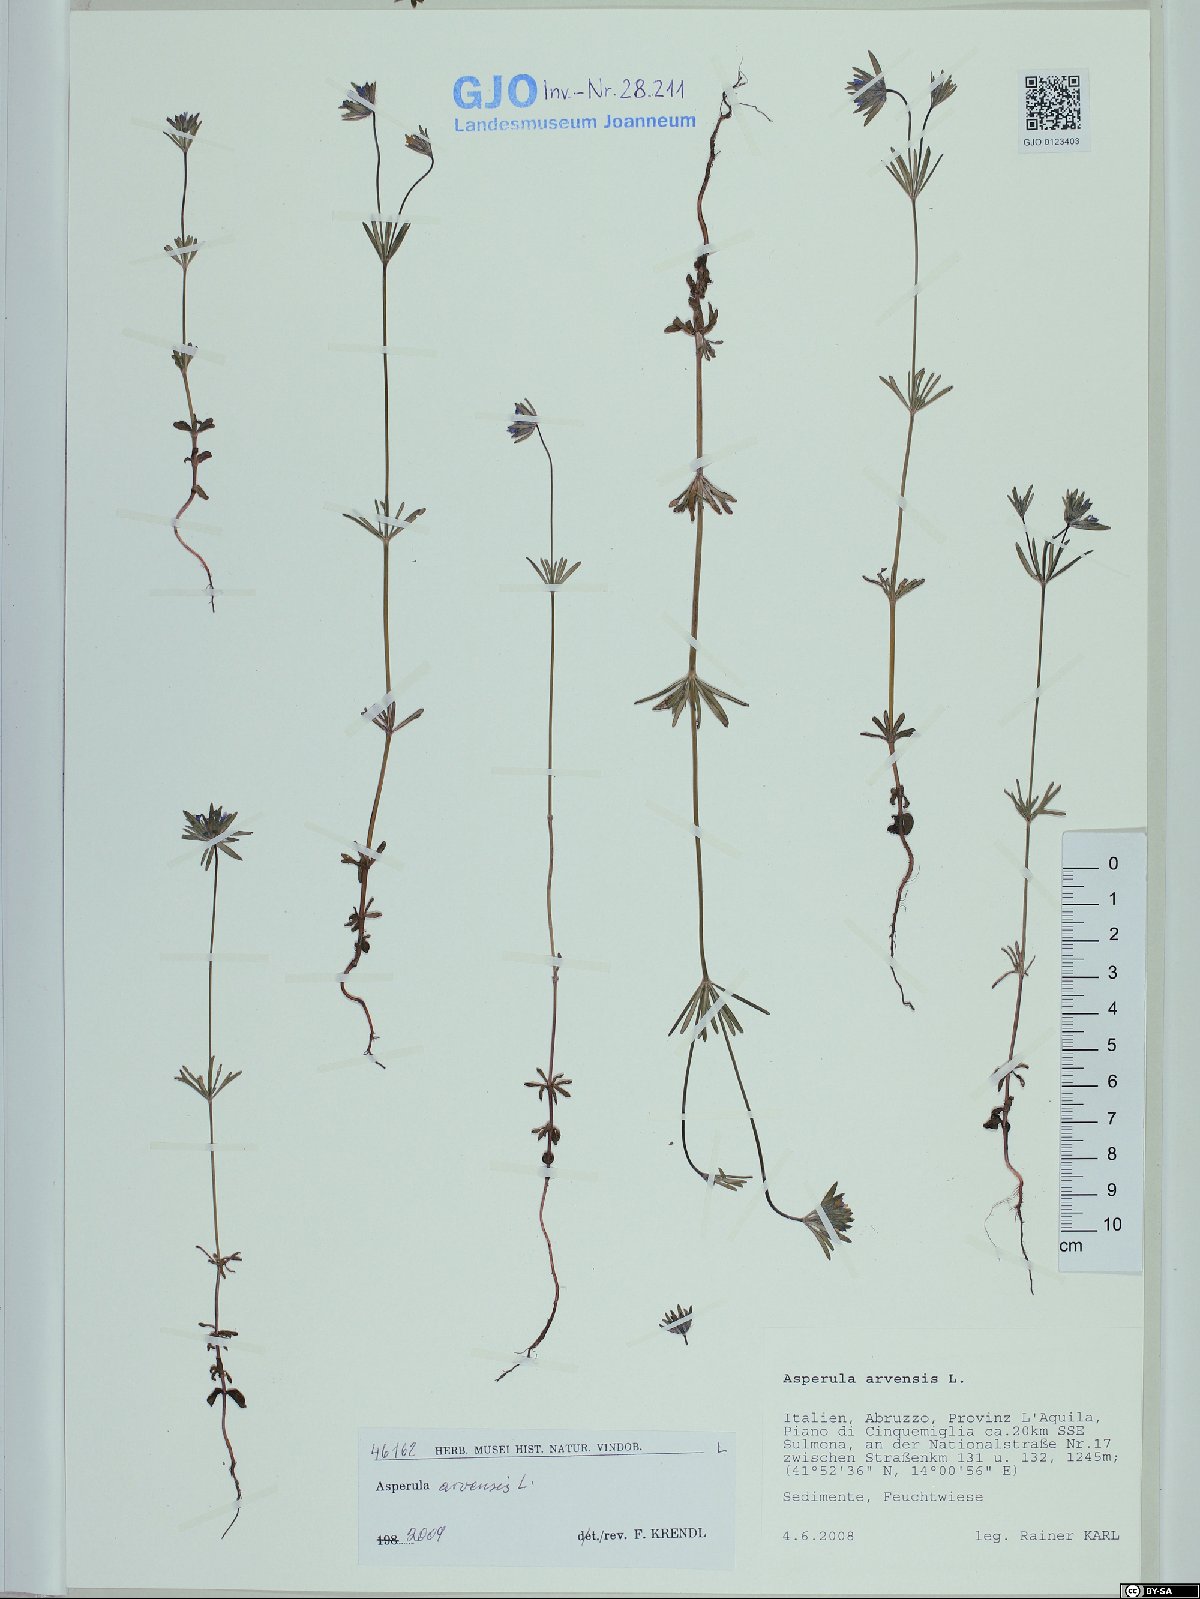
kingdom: Plantae
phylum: Tracheophyta
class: Magnoliopsida
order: Gentianales
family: Rubiaceae
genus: Asperula
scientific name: Asperula arvensis
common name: Blue woodruff
